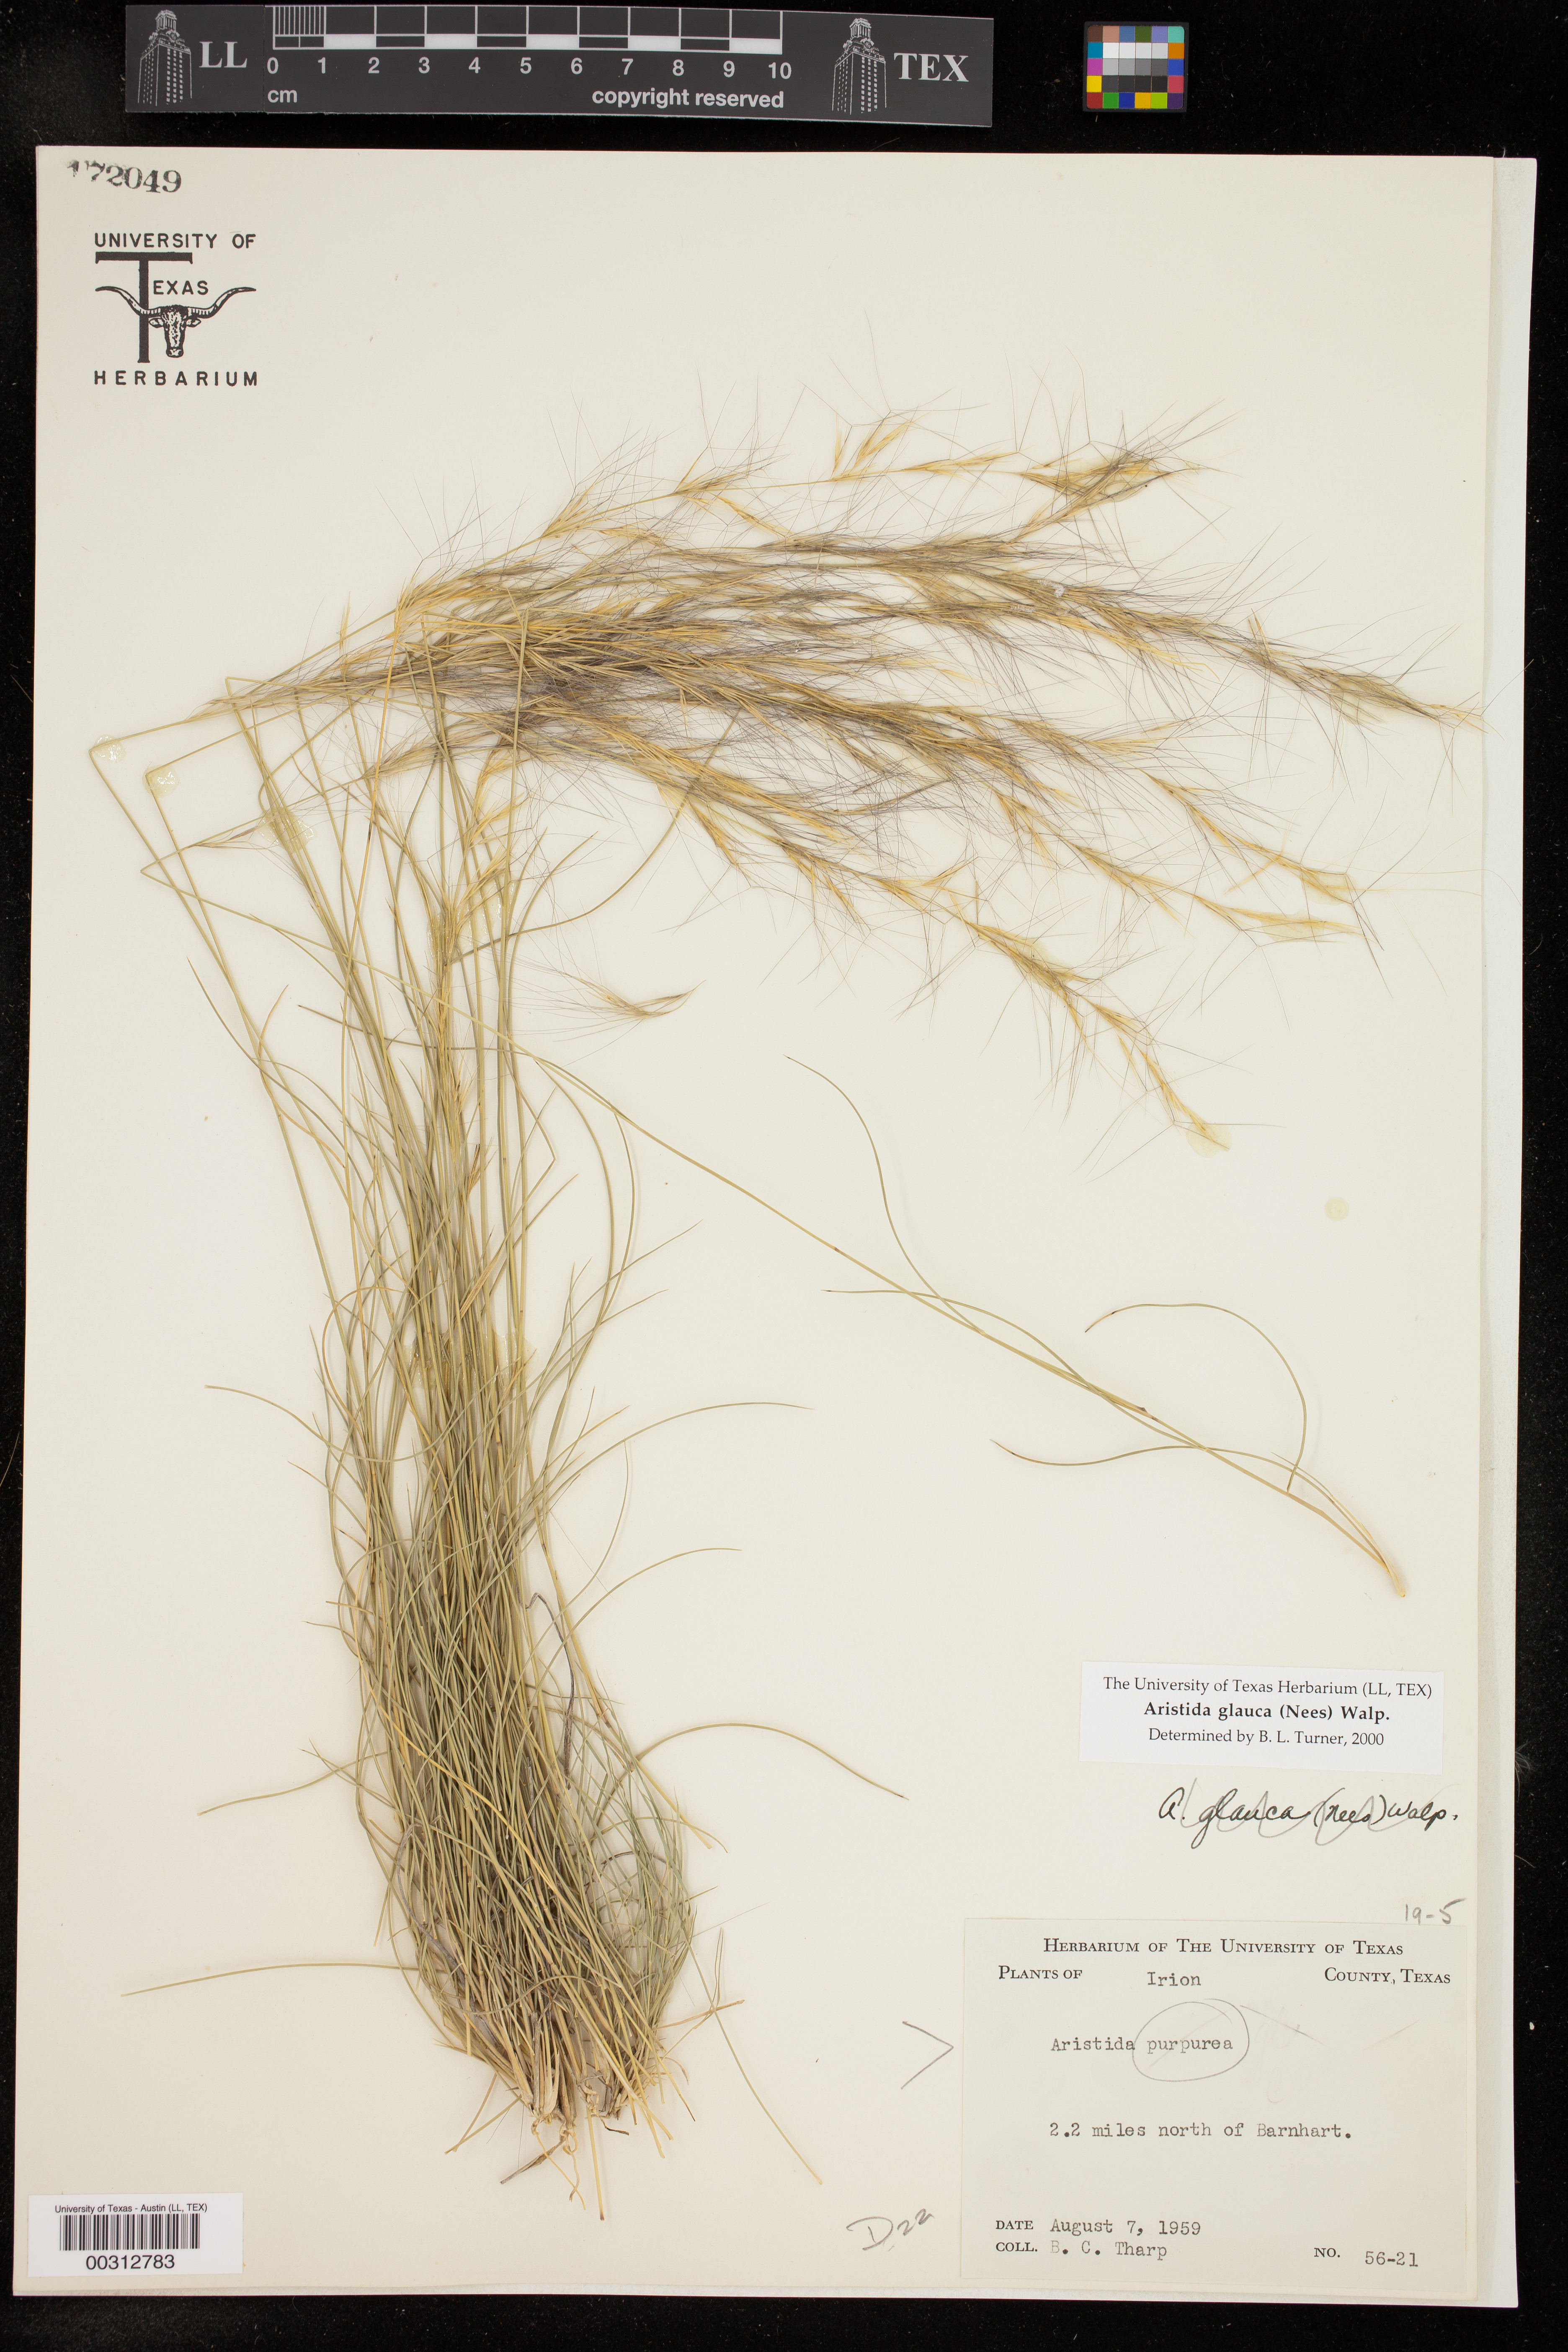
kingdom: Plantae
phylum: Tracheophyta
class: Liliopsida
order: Poales
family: Poaceae
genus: Aristida
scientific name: Aristida glauca
